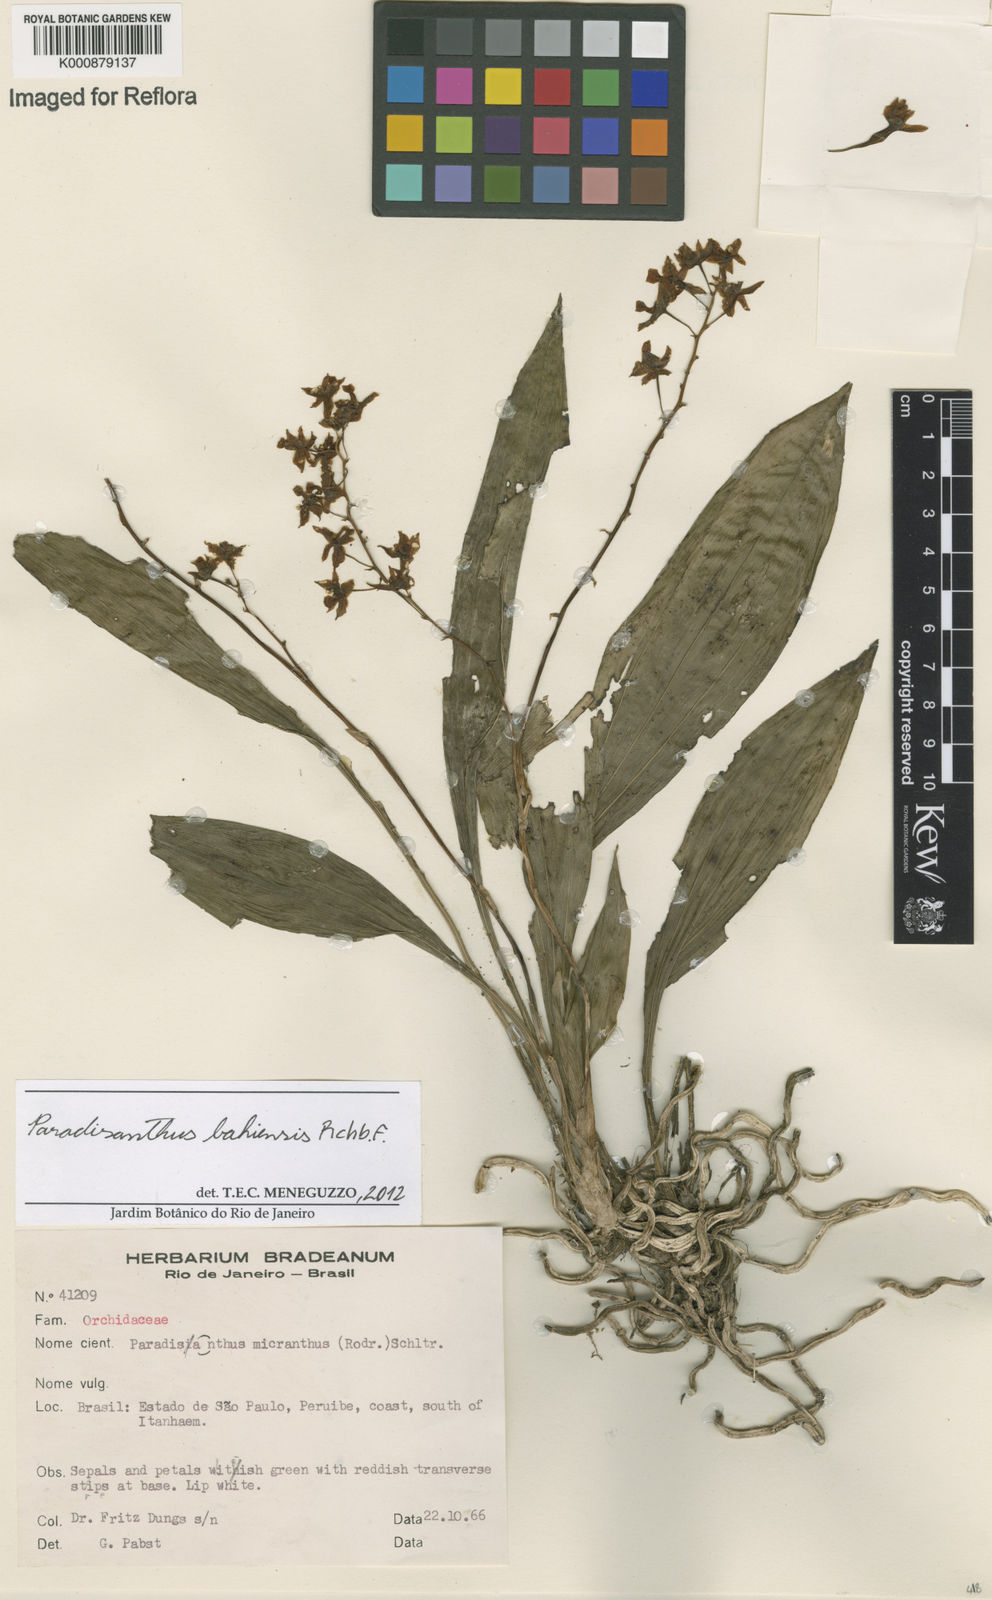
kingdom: Plantae
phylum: Tracheophyta
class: Liliopsida
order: Asparagales
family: Orchidaceae
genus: Paradisanthus
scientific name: Paradisanthus bahiensis
